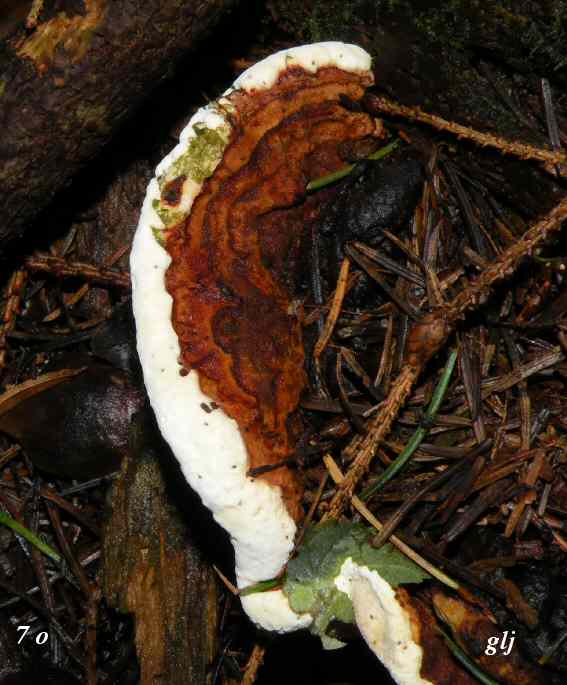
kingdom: Fungi
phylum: Basidiomycota
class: Agaricomycetes
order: Russulales
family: Bondarzewiaceae
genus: Heterobasidion
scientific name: Heterobasidion annosum
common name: almindelig rodfordærver
